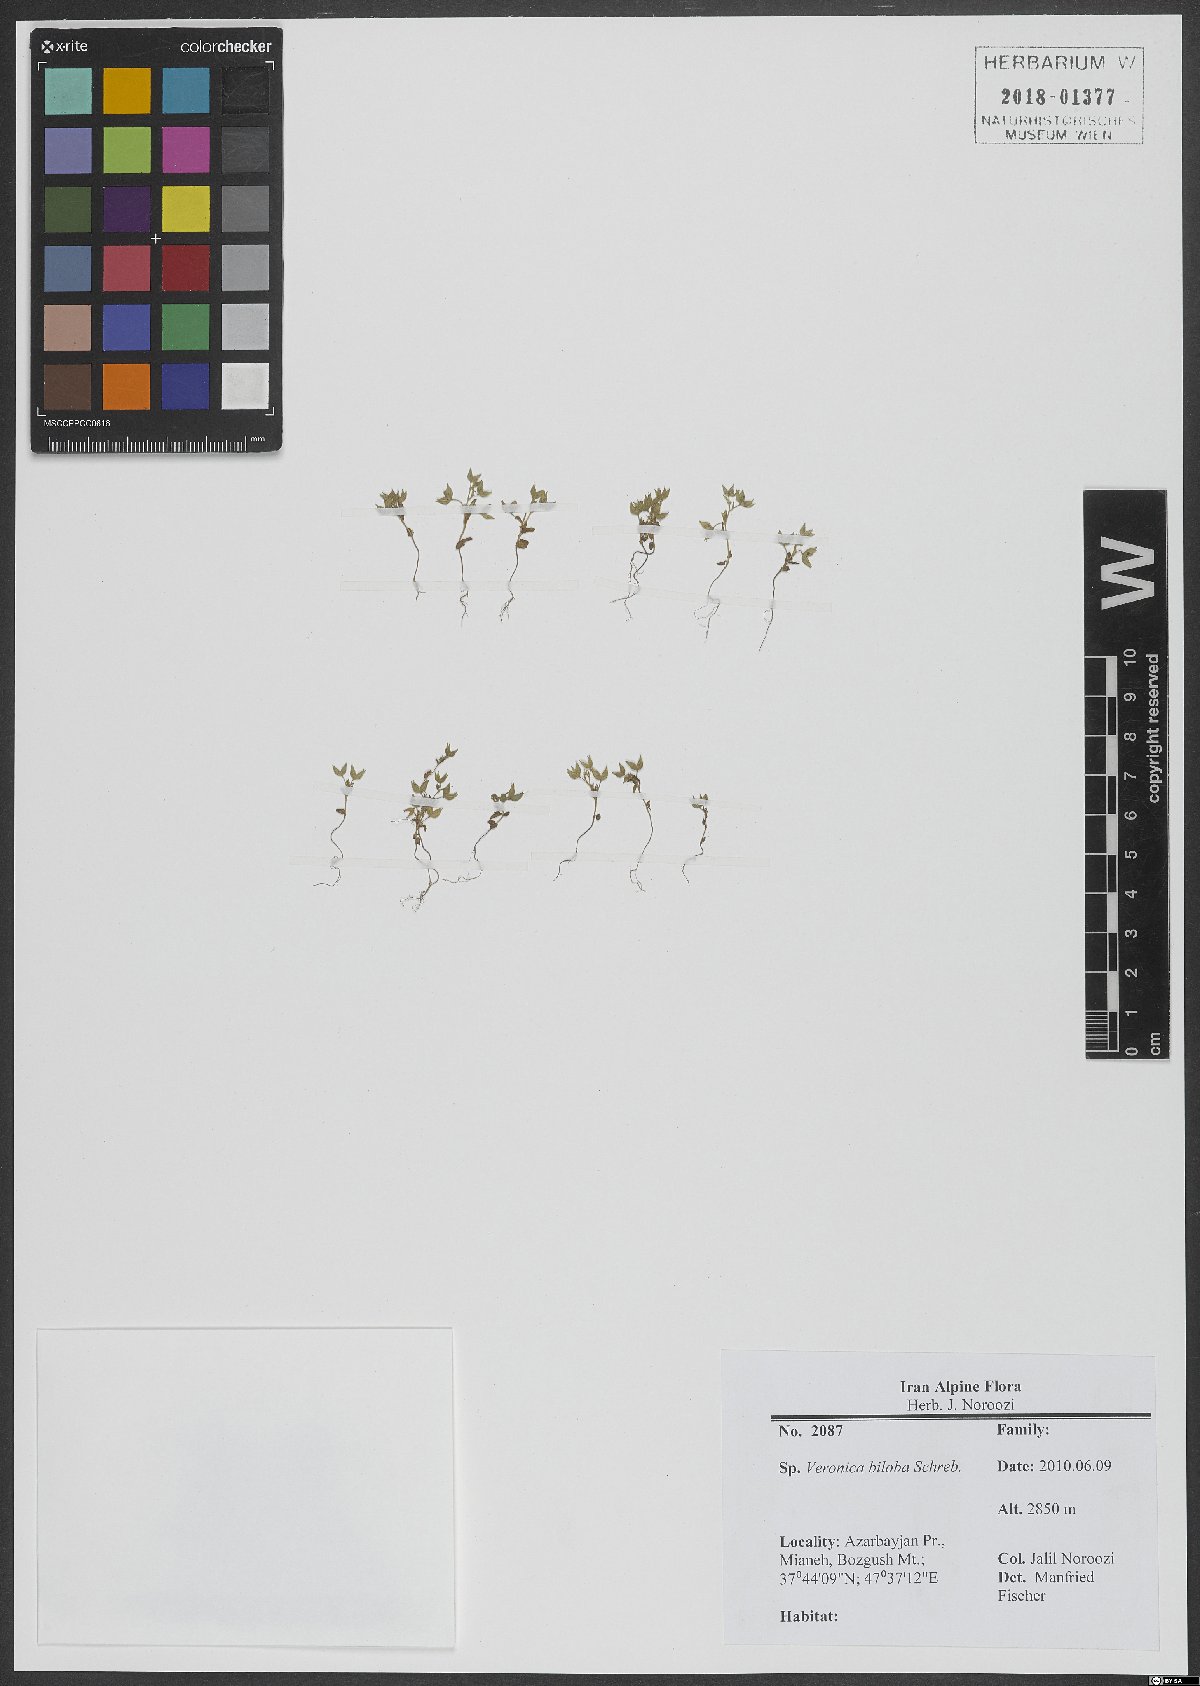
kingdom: Plantae
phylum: Tracheophyta
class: Magnoliopsida
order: Lamiales
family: Plantaginaceae
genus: Veronica
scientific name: Veronica biloba
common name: Twolobe speedwell
